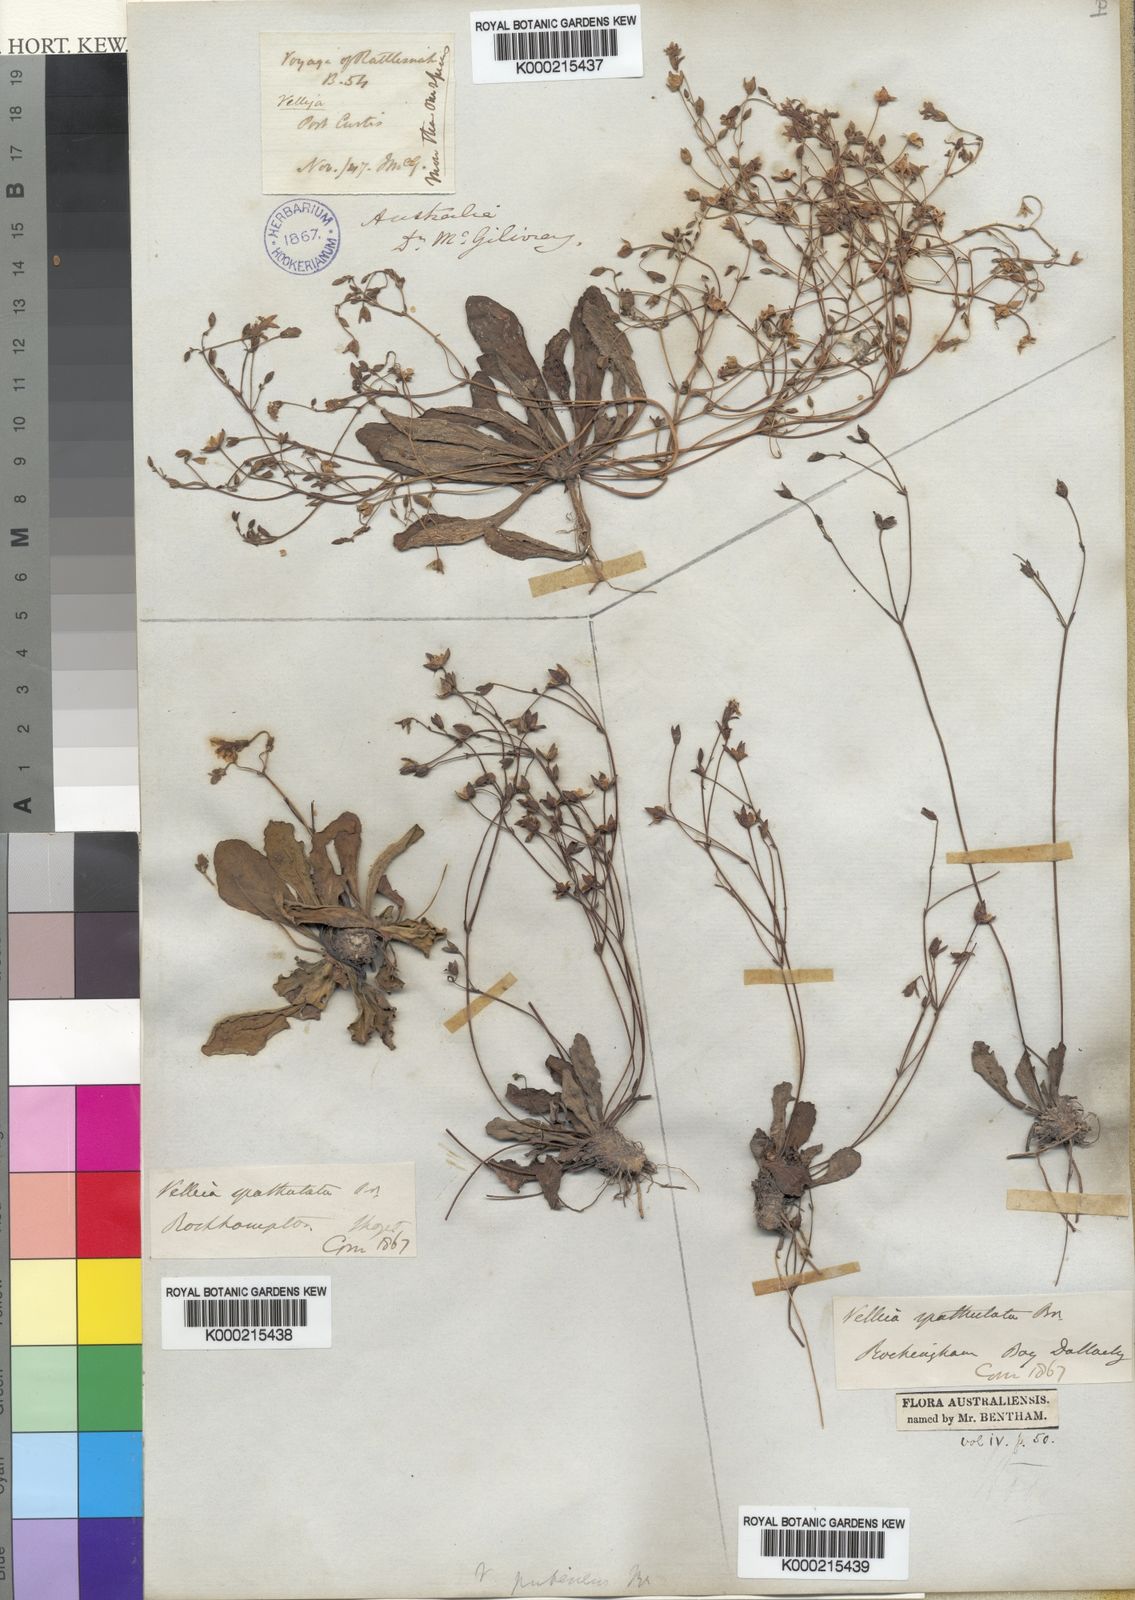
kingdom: Plantae
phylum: Tracheophyta
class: Magnoliopsida
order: Asterales
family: Goodeniaceae
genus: Goodenia
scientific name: Goodenia mystrophylla
